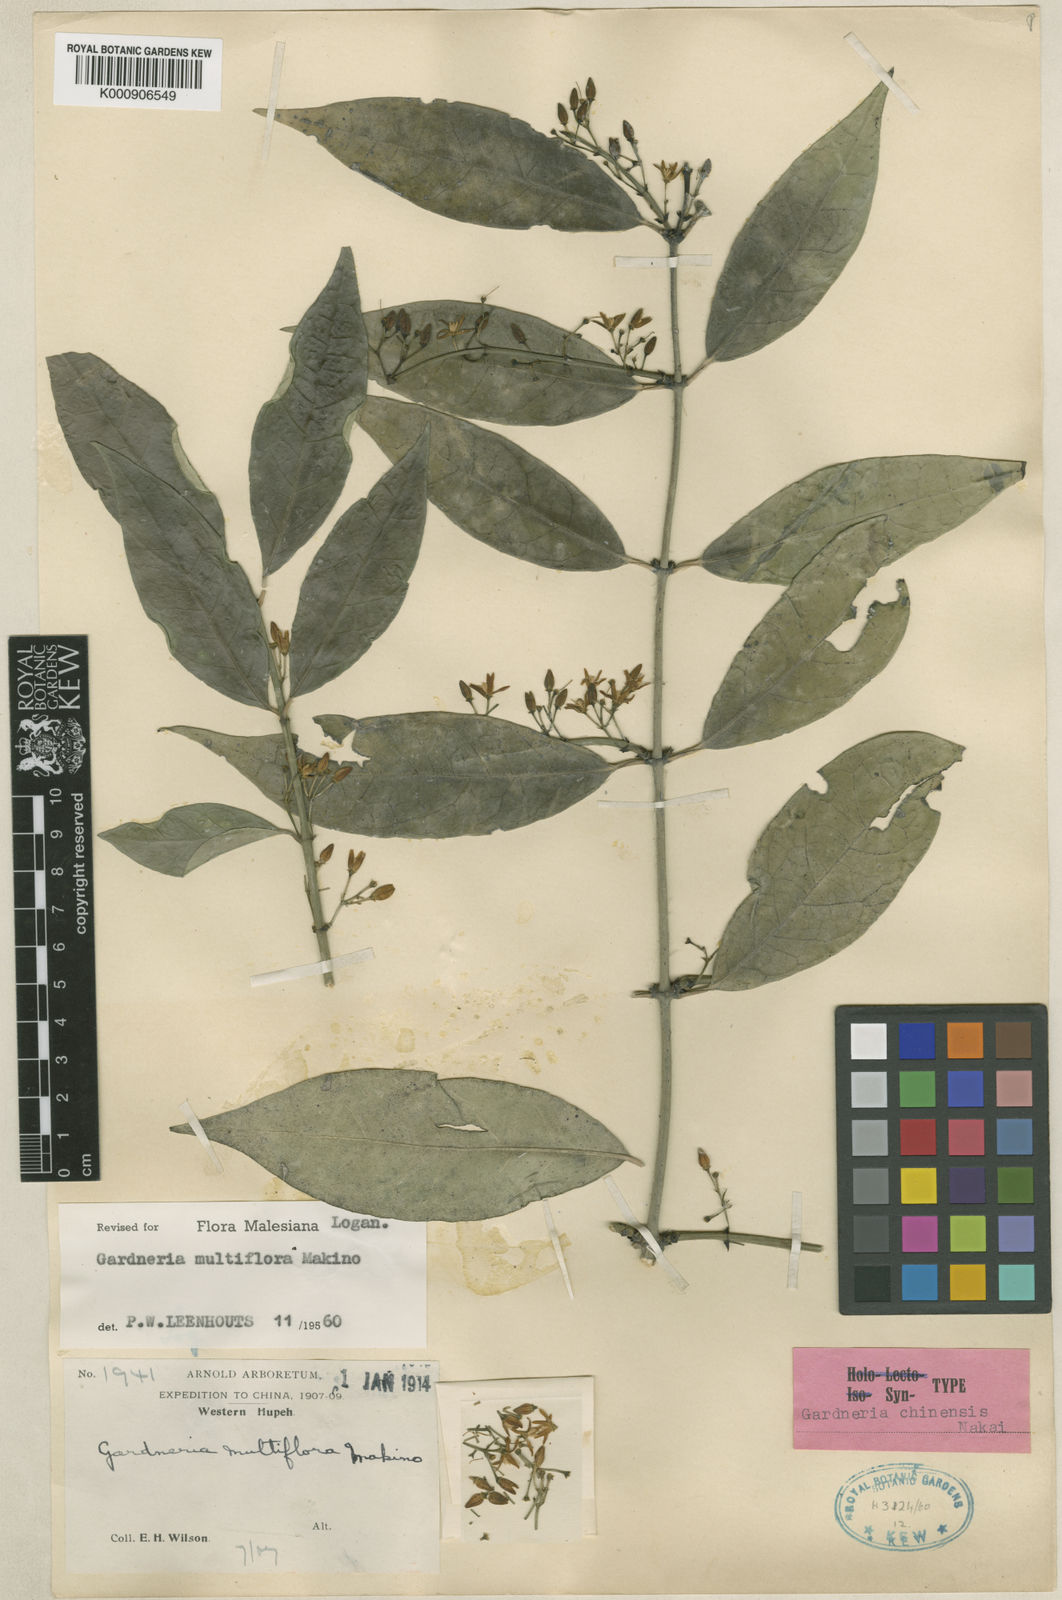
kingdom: Plantae
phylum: Tracheophyta
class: Magnoliopsida
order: Gentianales
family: Loganiaceae
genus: Gardneria
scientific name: Gardneria multiflora
